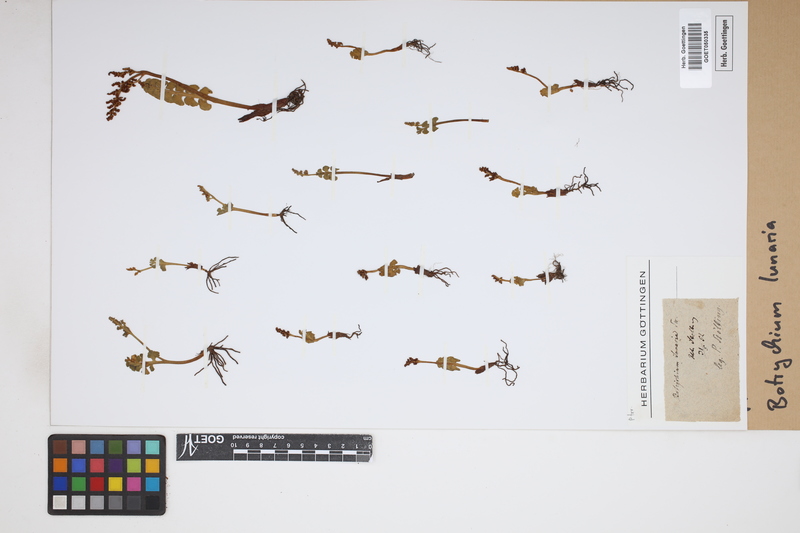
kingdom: Plantae
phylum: Tracheophyta
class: Polypodiopsida
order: Ophioglossales
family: Ophioglossaceae
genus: Botrychium
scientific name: Botrychium lunaria
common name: Moonwort
